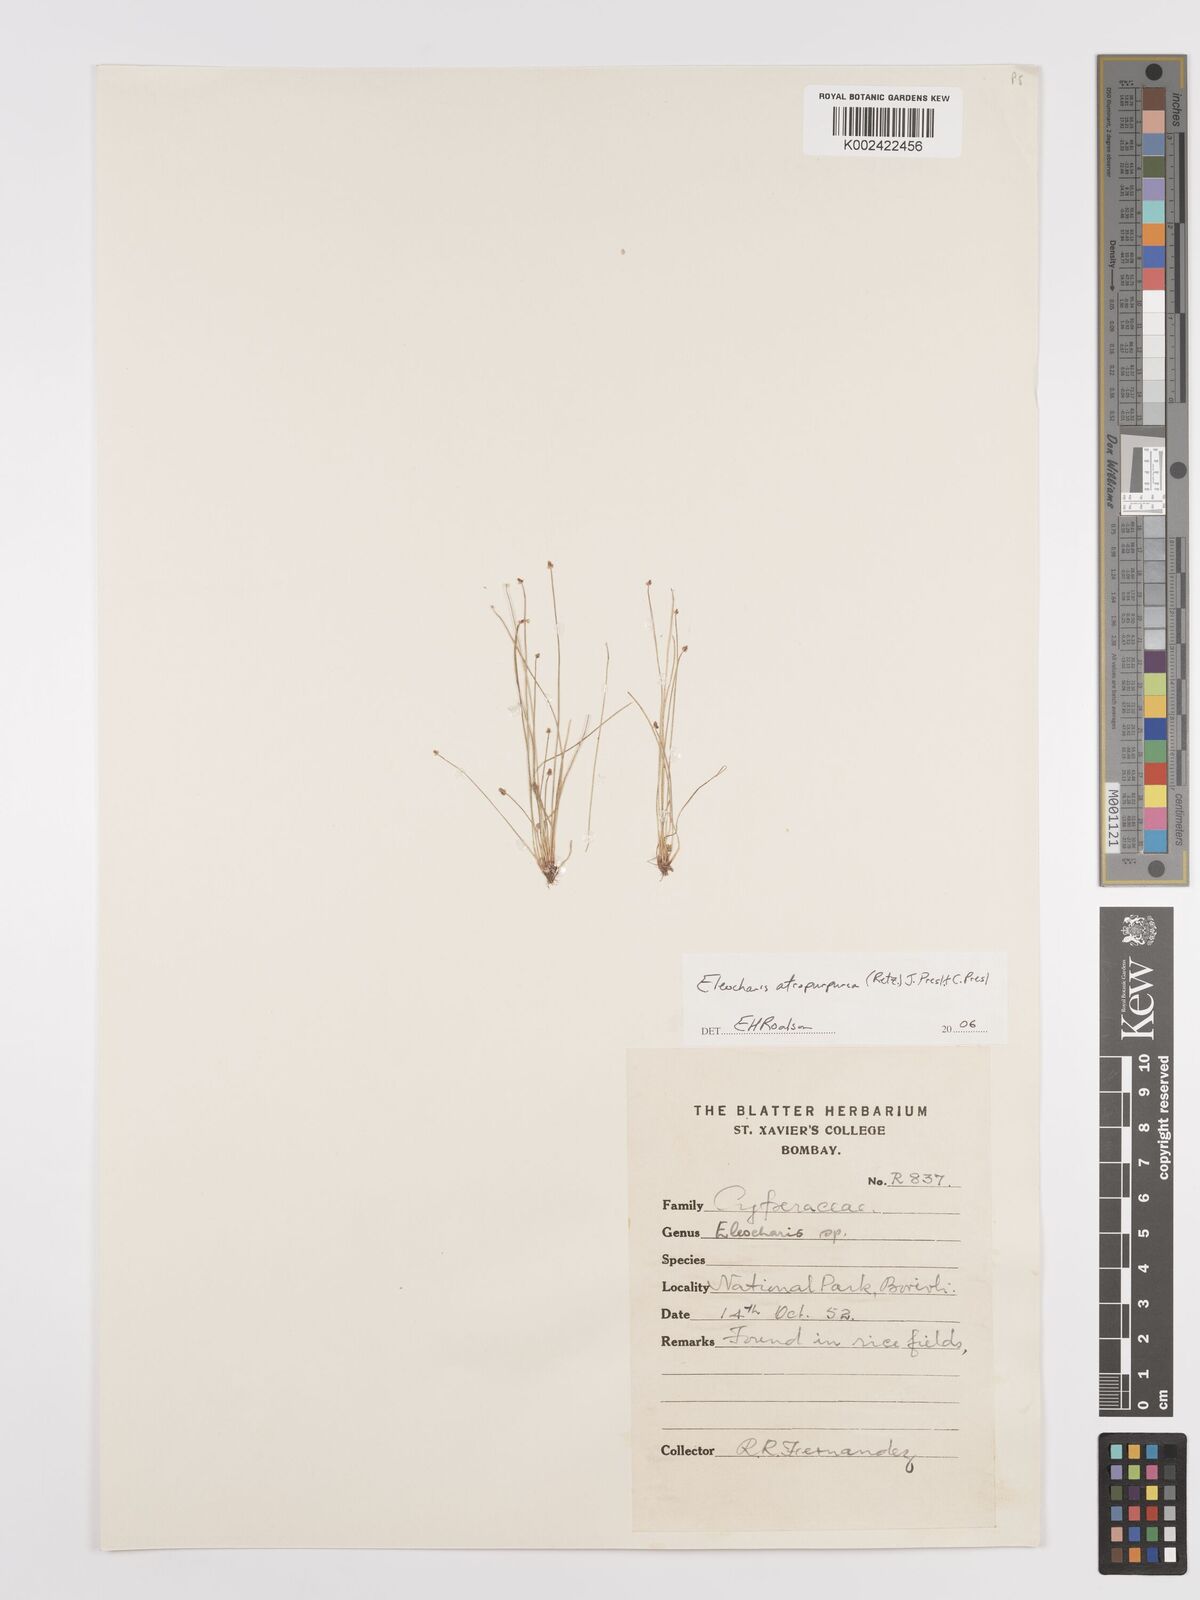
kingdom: Plantae
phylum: Tracheophyta
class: Liliopsida
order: Poales
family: Cyperaceae
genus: Eleocharis
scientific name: Eleocharis atropurpurea
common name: Purple spikerush
